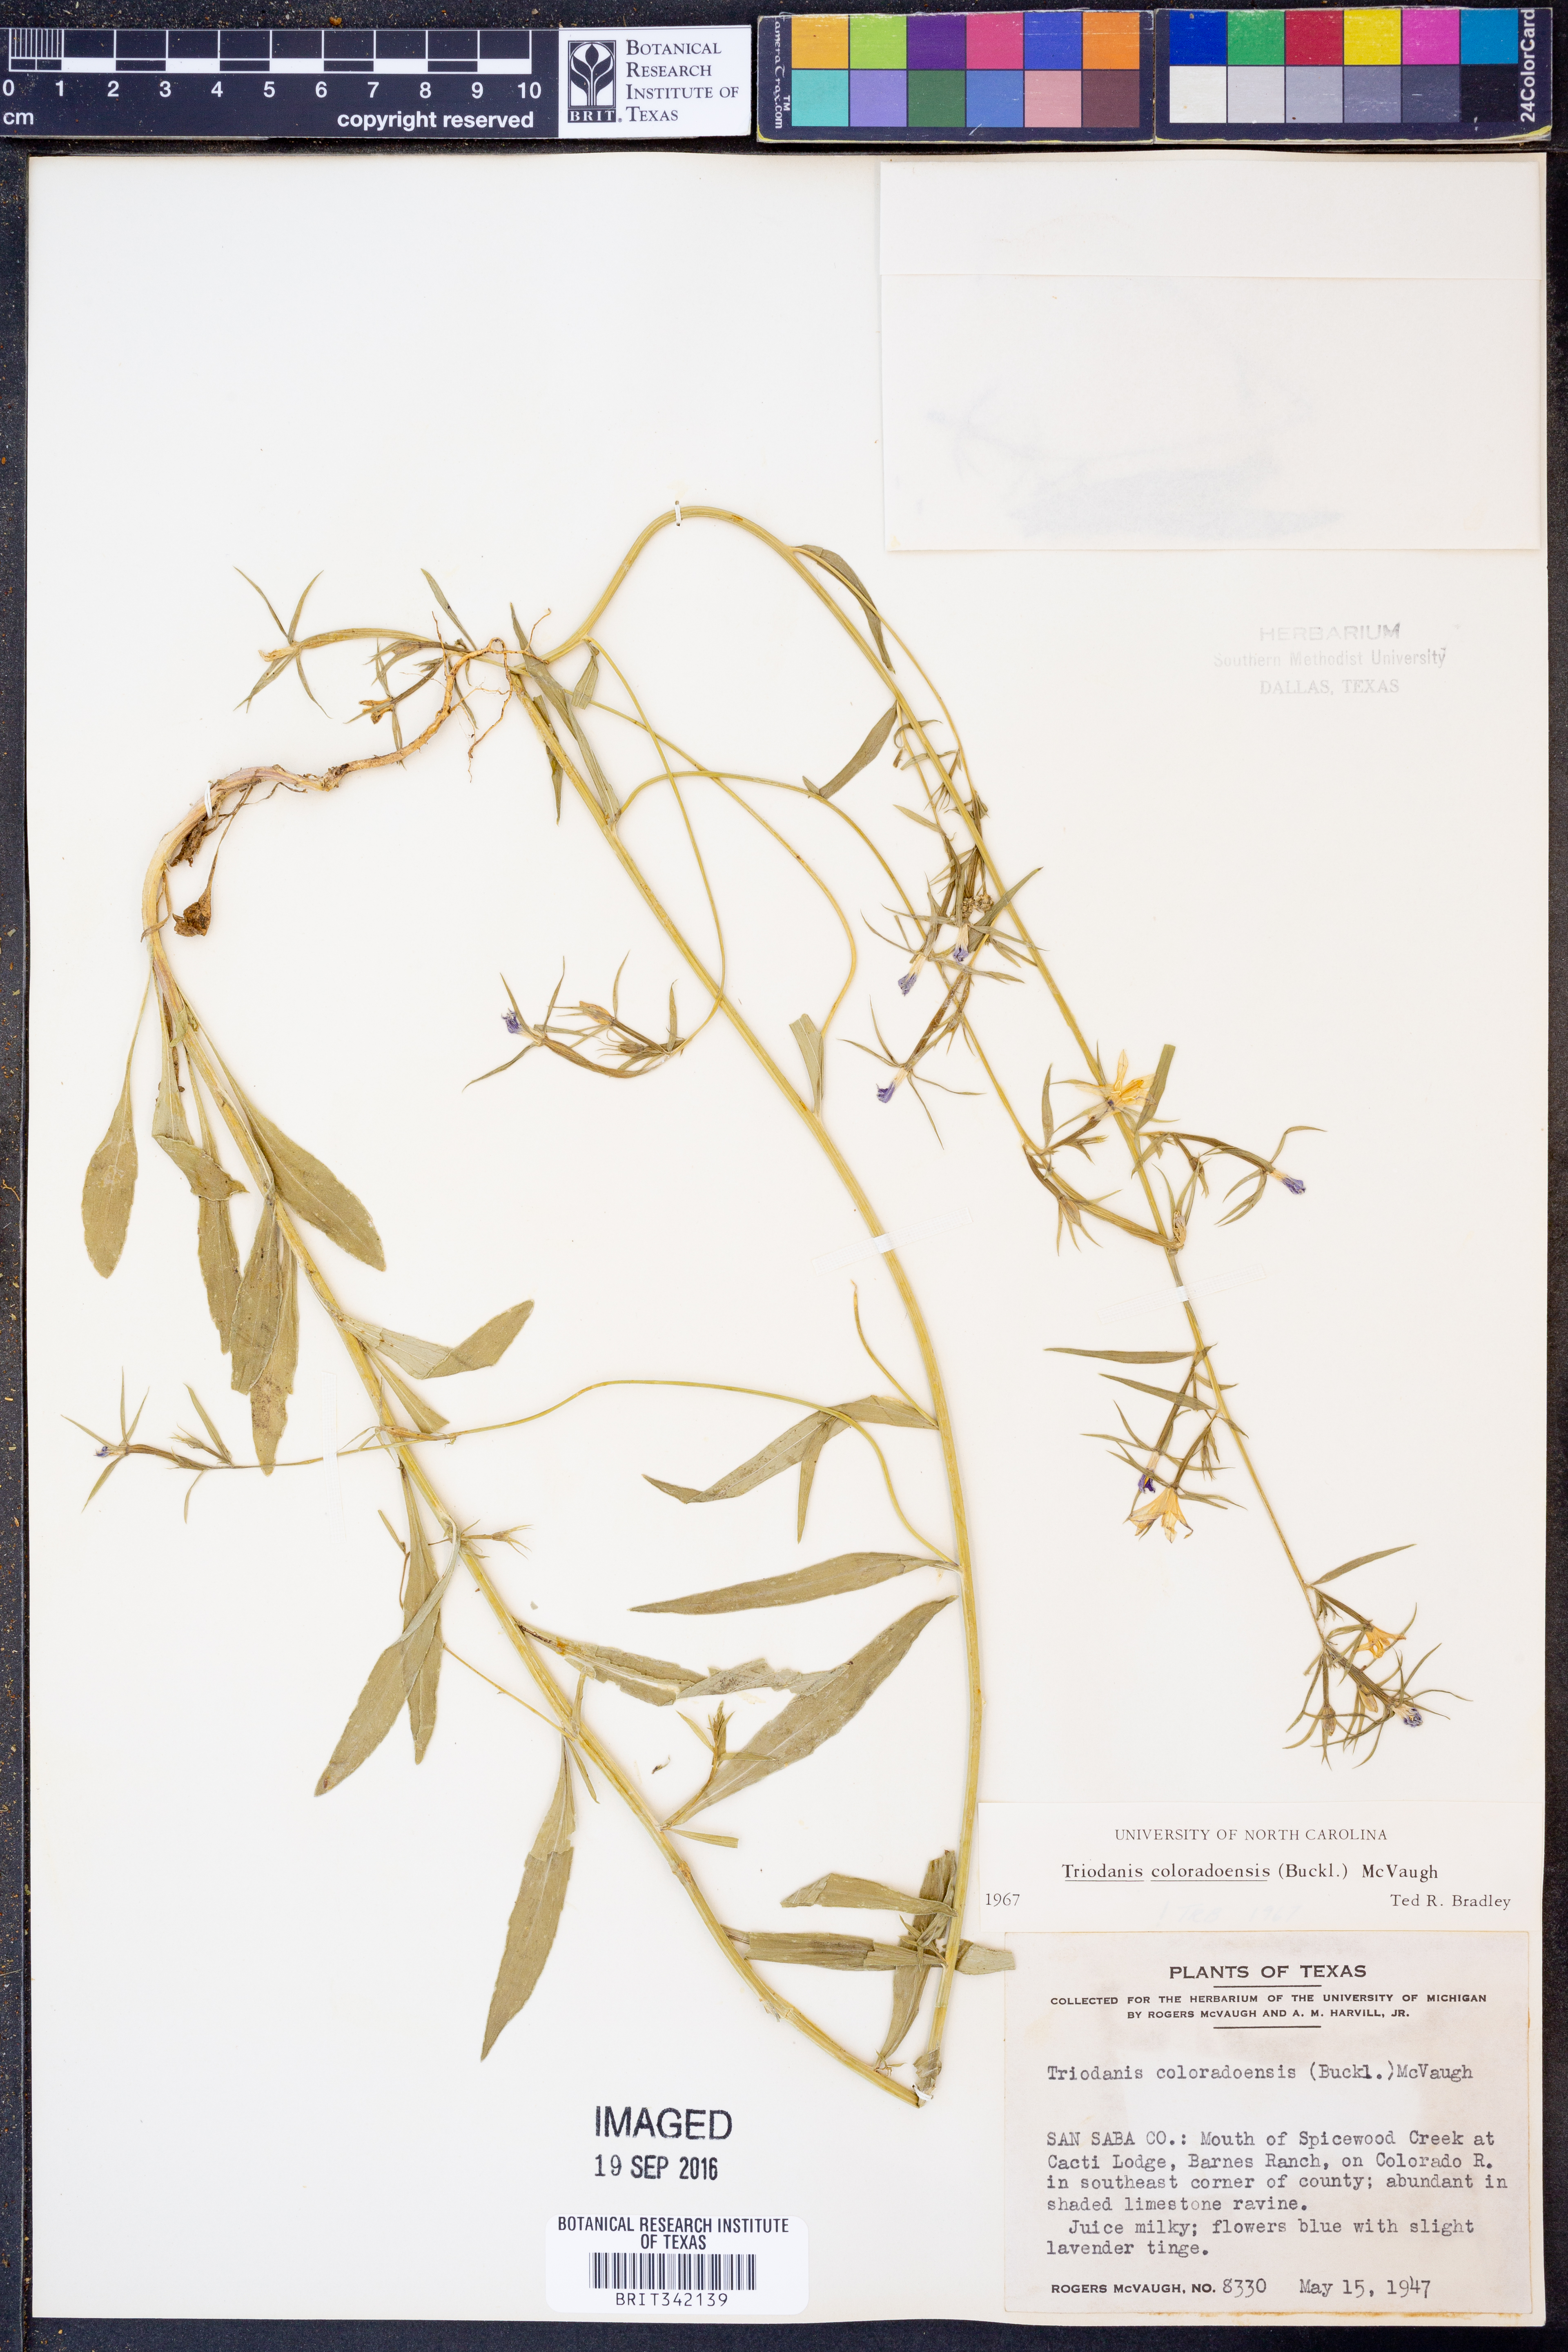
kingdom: Plantae
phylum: Tracheophyta
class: Magnoliopsida
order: Asterales
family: Campanulaceae
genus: Triodanis
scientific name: Triodanis coloradoensis
